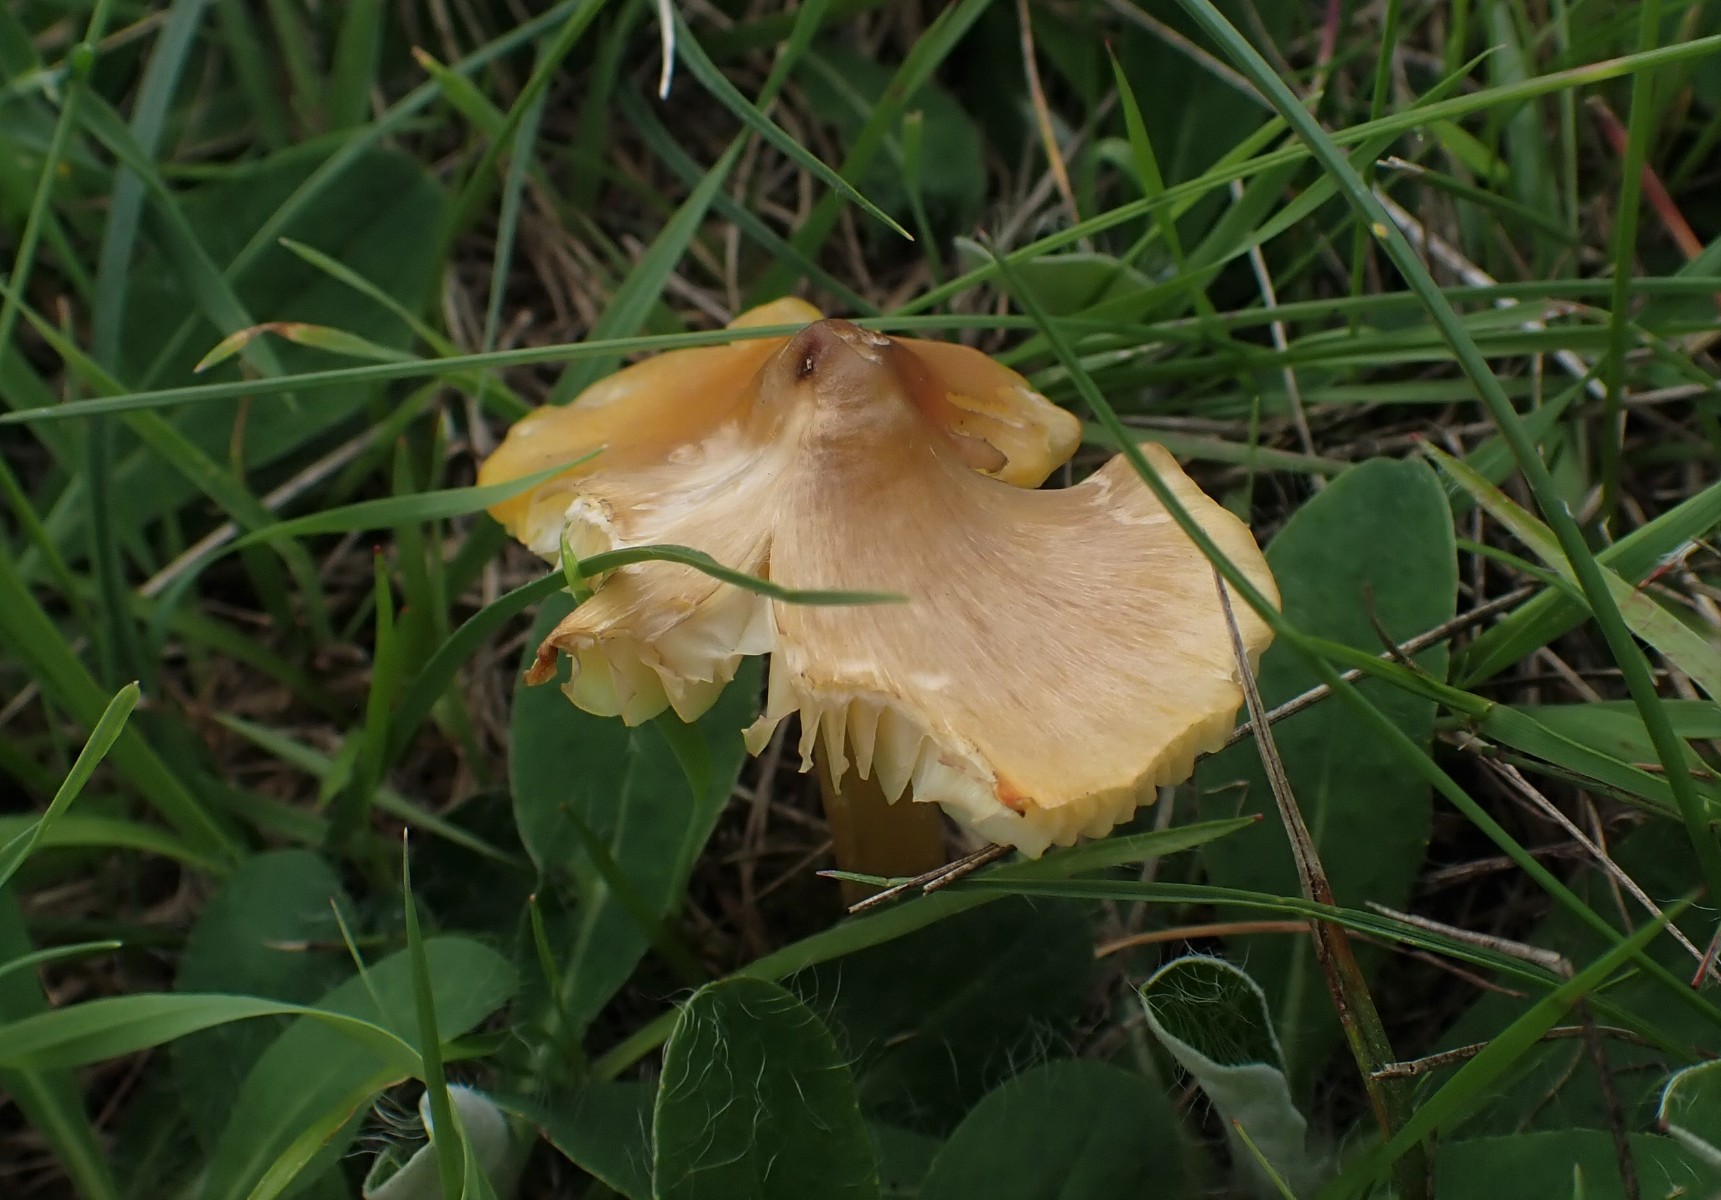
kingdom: Fungi
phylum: Basidiomycota
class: Agaricomycetes
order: Agaricales
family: Hygrophoraceae
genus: Hygrocybe
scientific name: Hygrocybe acutoconica
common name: spidspuklet vokshat
